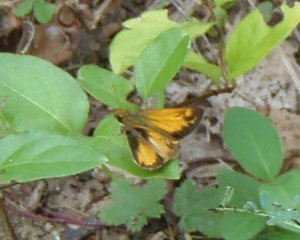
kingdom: Animalia
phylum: Arthropoda
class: Insecta
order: Lepidoptera
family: Hesperiidae
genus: Lon
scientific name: Lon zabulon
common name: Zabulon Skipper
